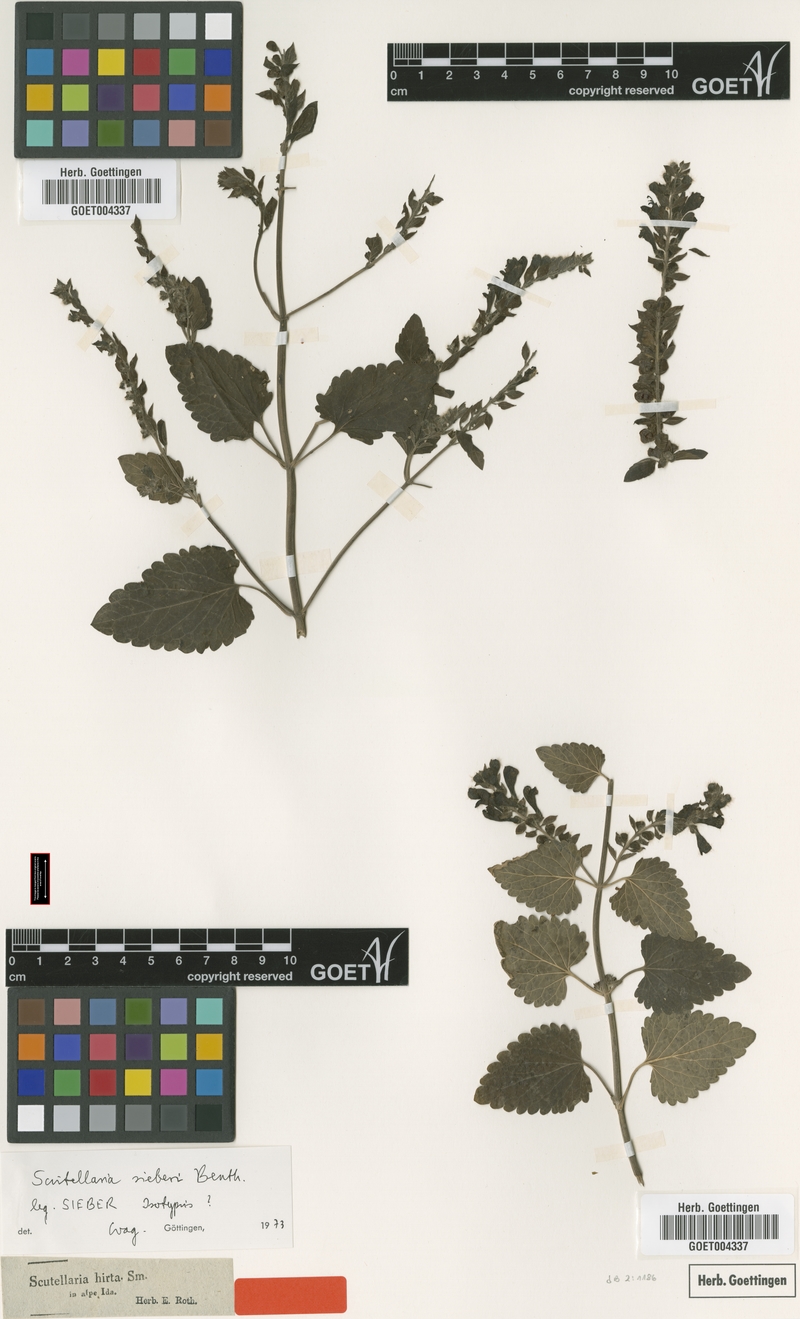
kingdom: Plantae
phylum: Tracheophyta
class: Magnoliopsida
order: Lamiales
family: Lamiaceae
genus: Scutellaria
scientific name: Scutellaria sieberi
